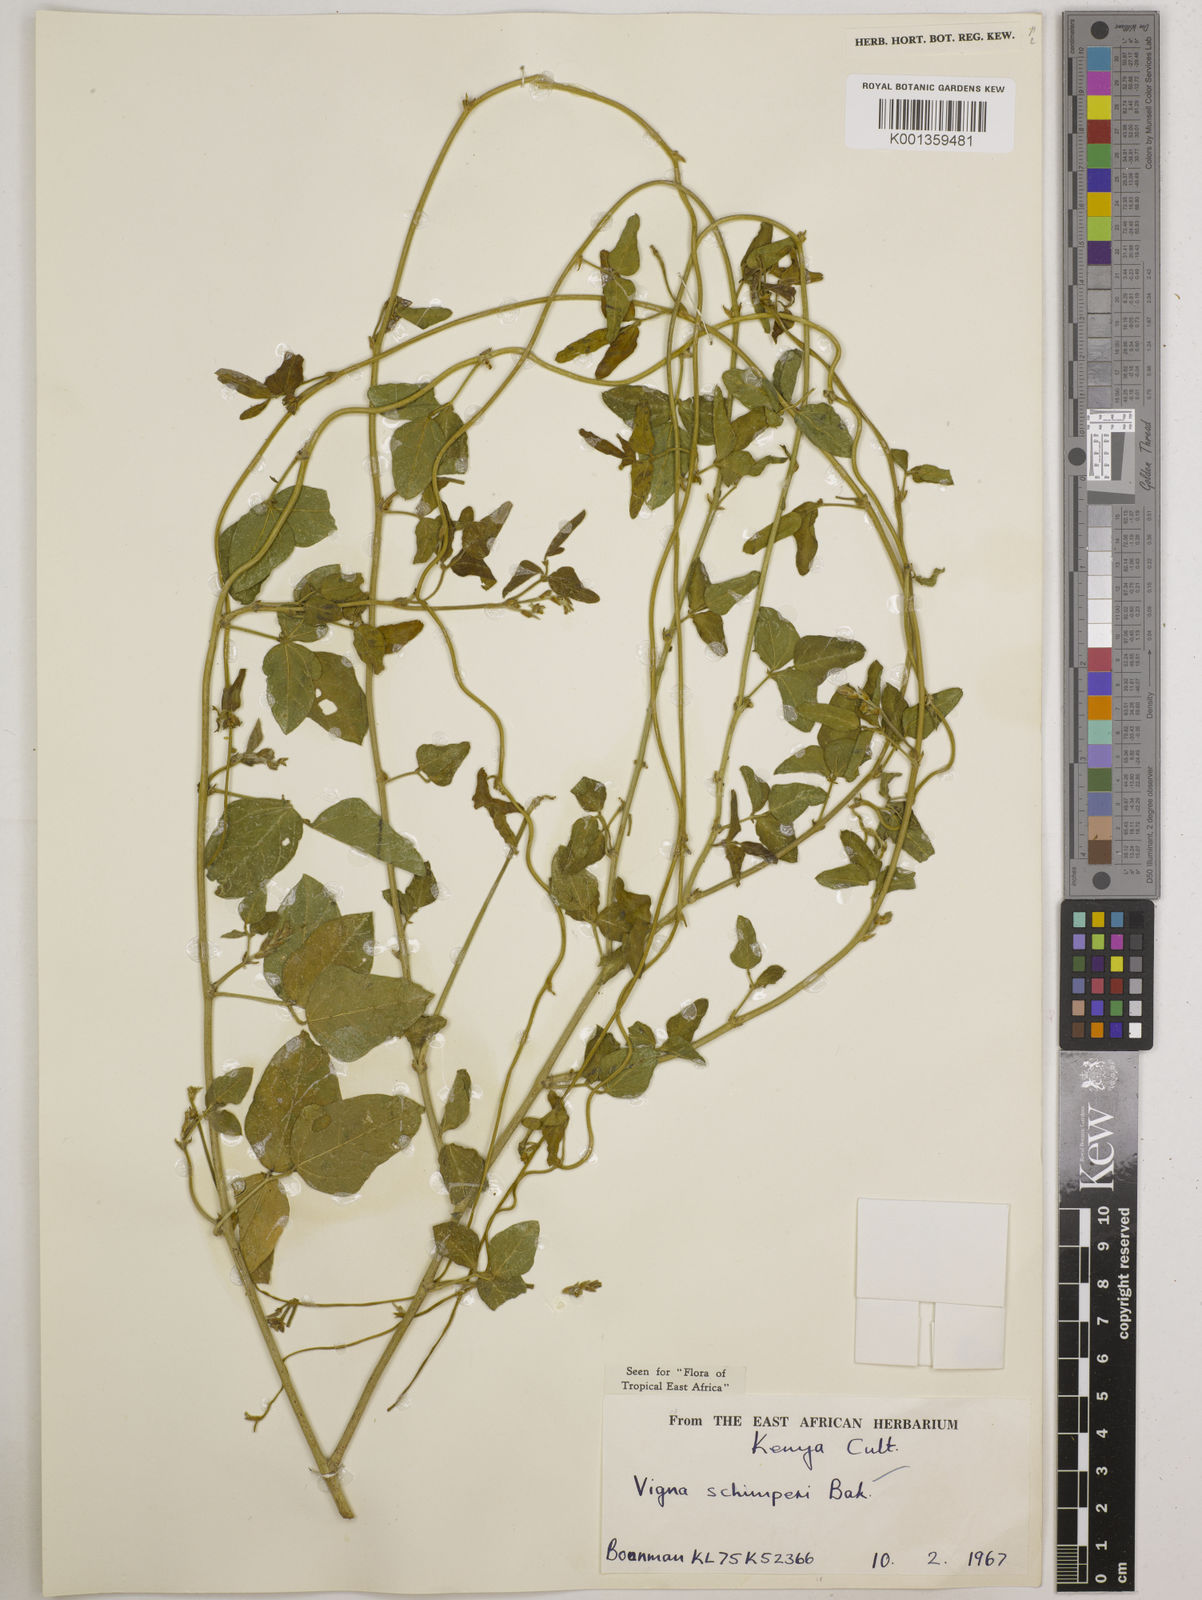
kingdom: Plantae
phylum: Tracheophyta
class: Magnoliopsida
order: Fabales
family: Fabaceae
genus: Vigna
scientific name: Vigna schimperi
